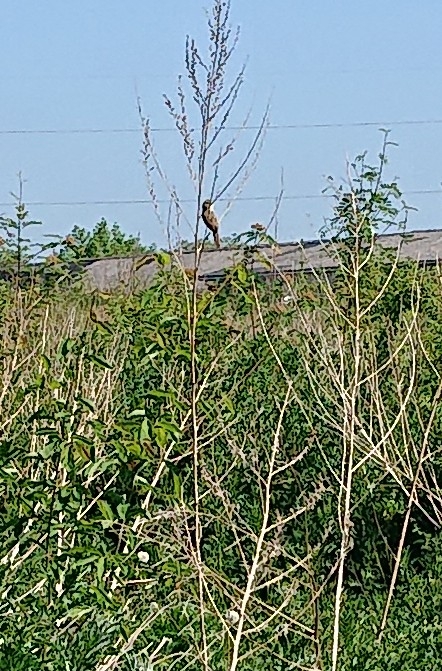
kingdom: Animalia
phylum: Chordata
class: Aves
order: Passeriformes
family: Acrocephalidae
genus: Acrocephalus
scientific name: Acrocephalus palustris
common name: Kærsanger
